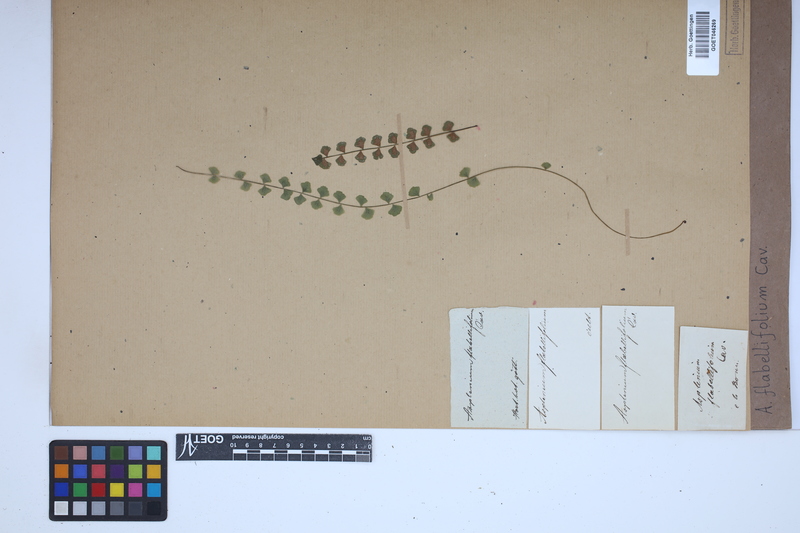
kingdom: Plantae
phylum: Tracheophyta
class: Polypodiopsida
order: Polypodiales
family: Aspleniaceae
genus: Asplenium
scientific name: Asplenium flabellifolium
